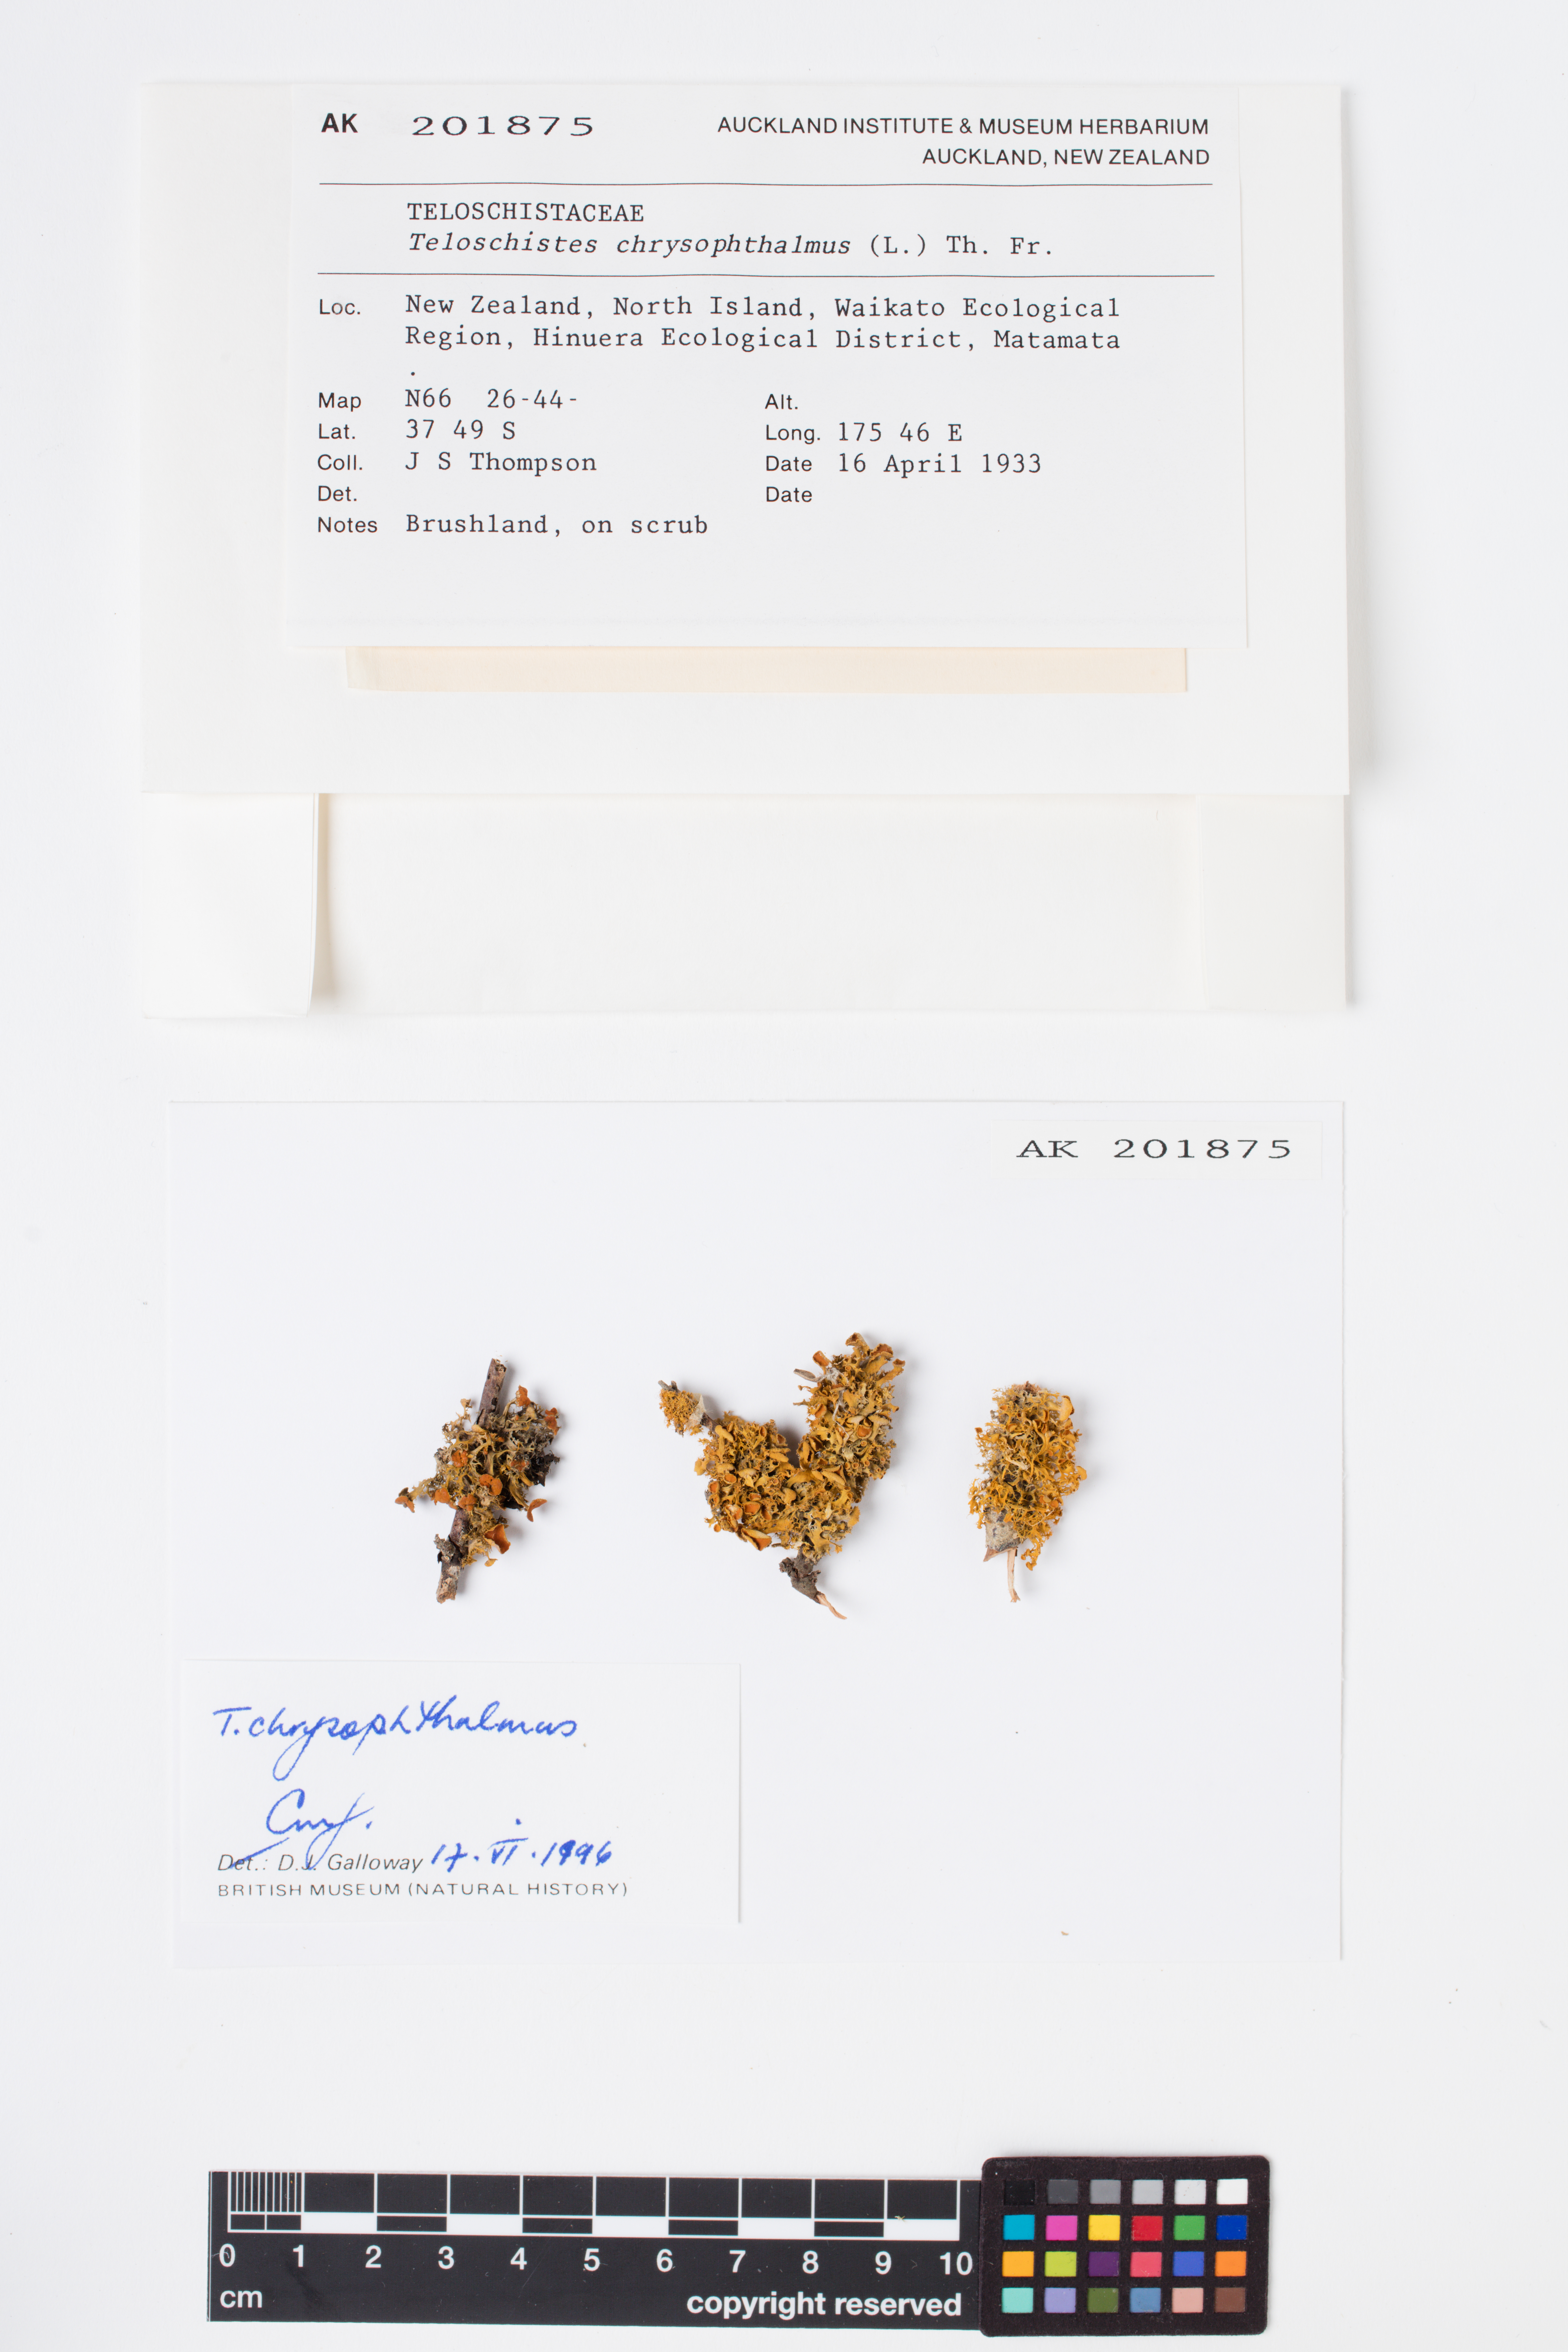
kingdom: Fungi
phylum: Ascomycota
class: Lecanoromycetes
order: Teloschistales
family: Teloschistaceae
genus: Niorma
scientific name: Niorma chrysophthalma
